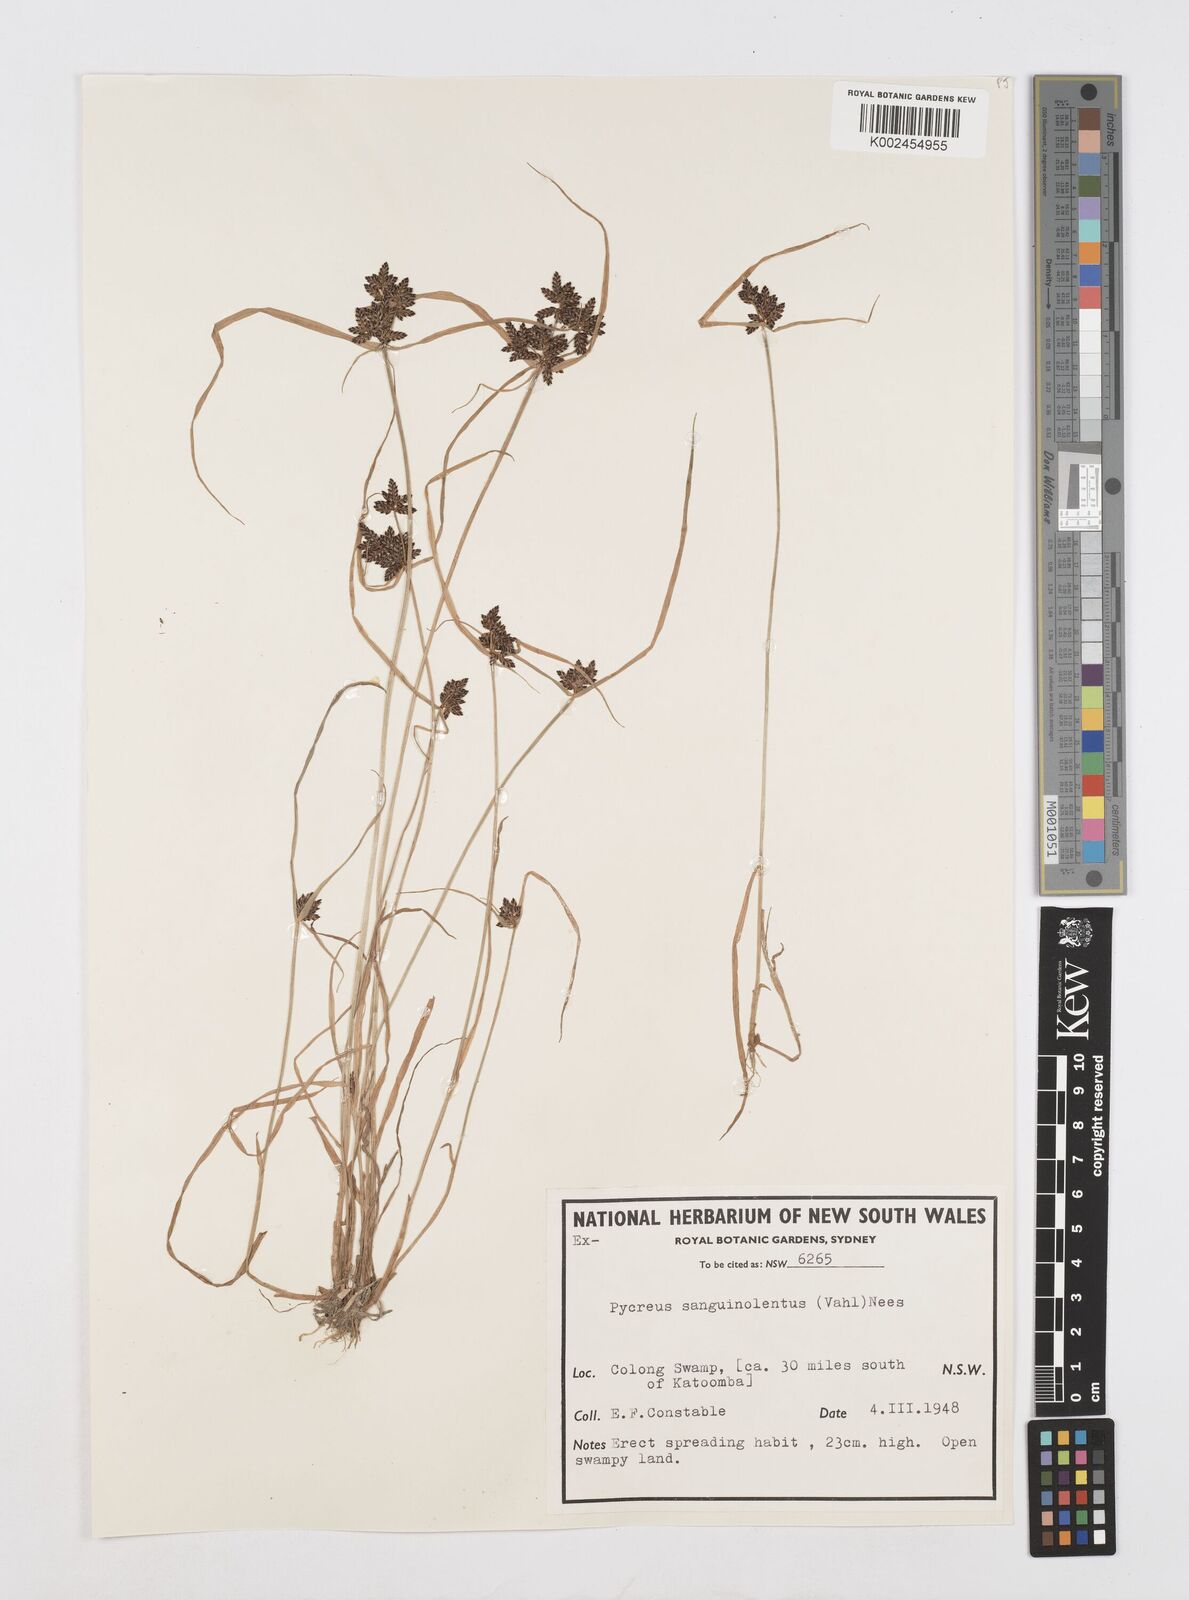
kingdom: Plantae
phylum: Tracheophyta
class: Liliopsida
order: Poales
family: Cyperaceae
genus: Cyperus
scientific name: Cyperus sanguinolentus
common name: Purpleglume flatsedge
